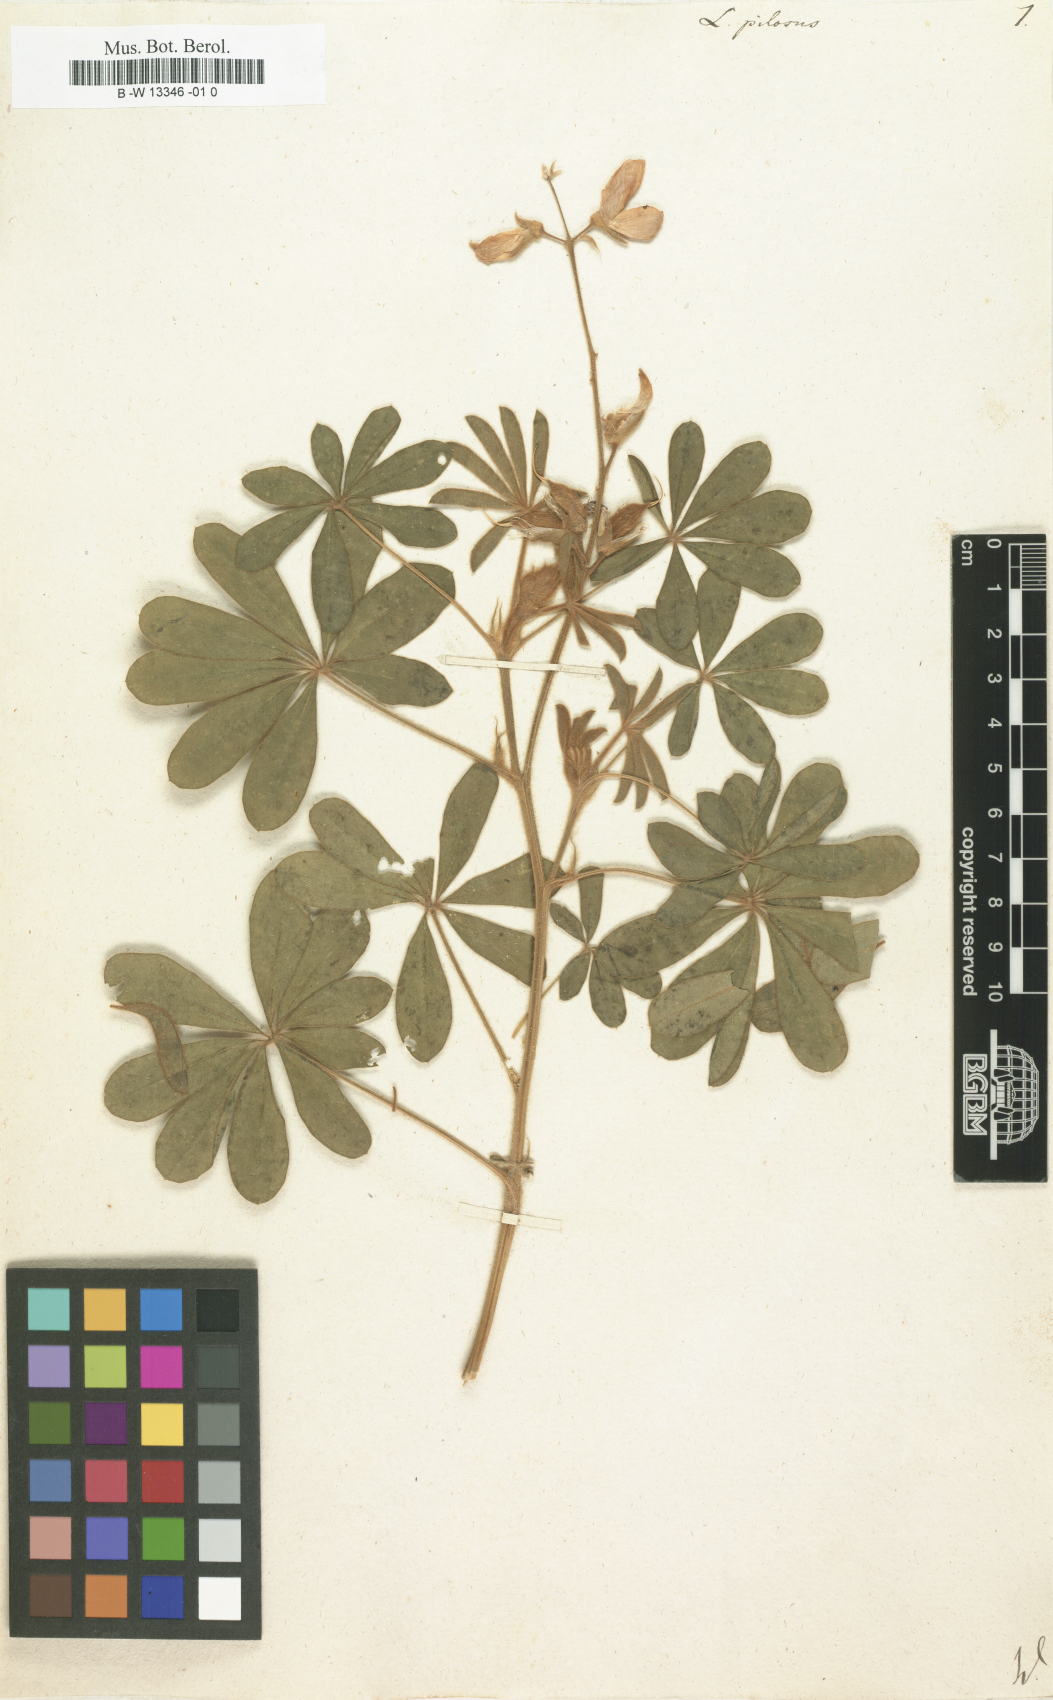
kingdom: Plantae
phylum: Tracheophyta
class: Magnoliopsida
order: Fabales
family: Fabaceae
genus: Lupinus
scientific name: Lupinus pilosus
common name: Blue lupine
